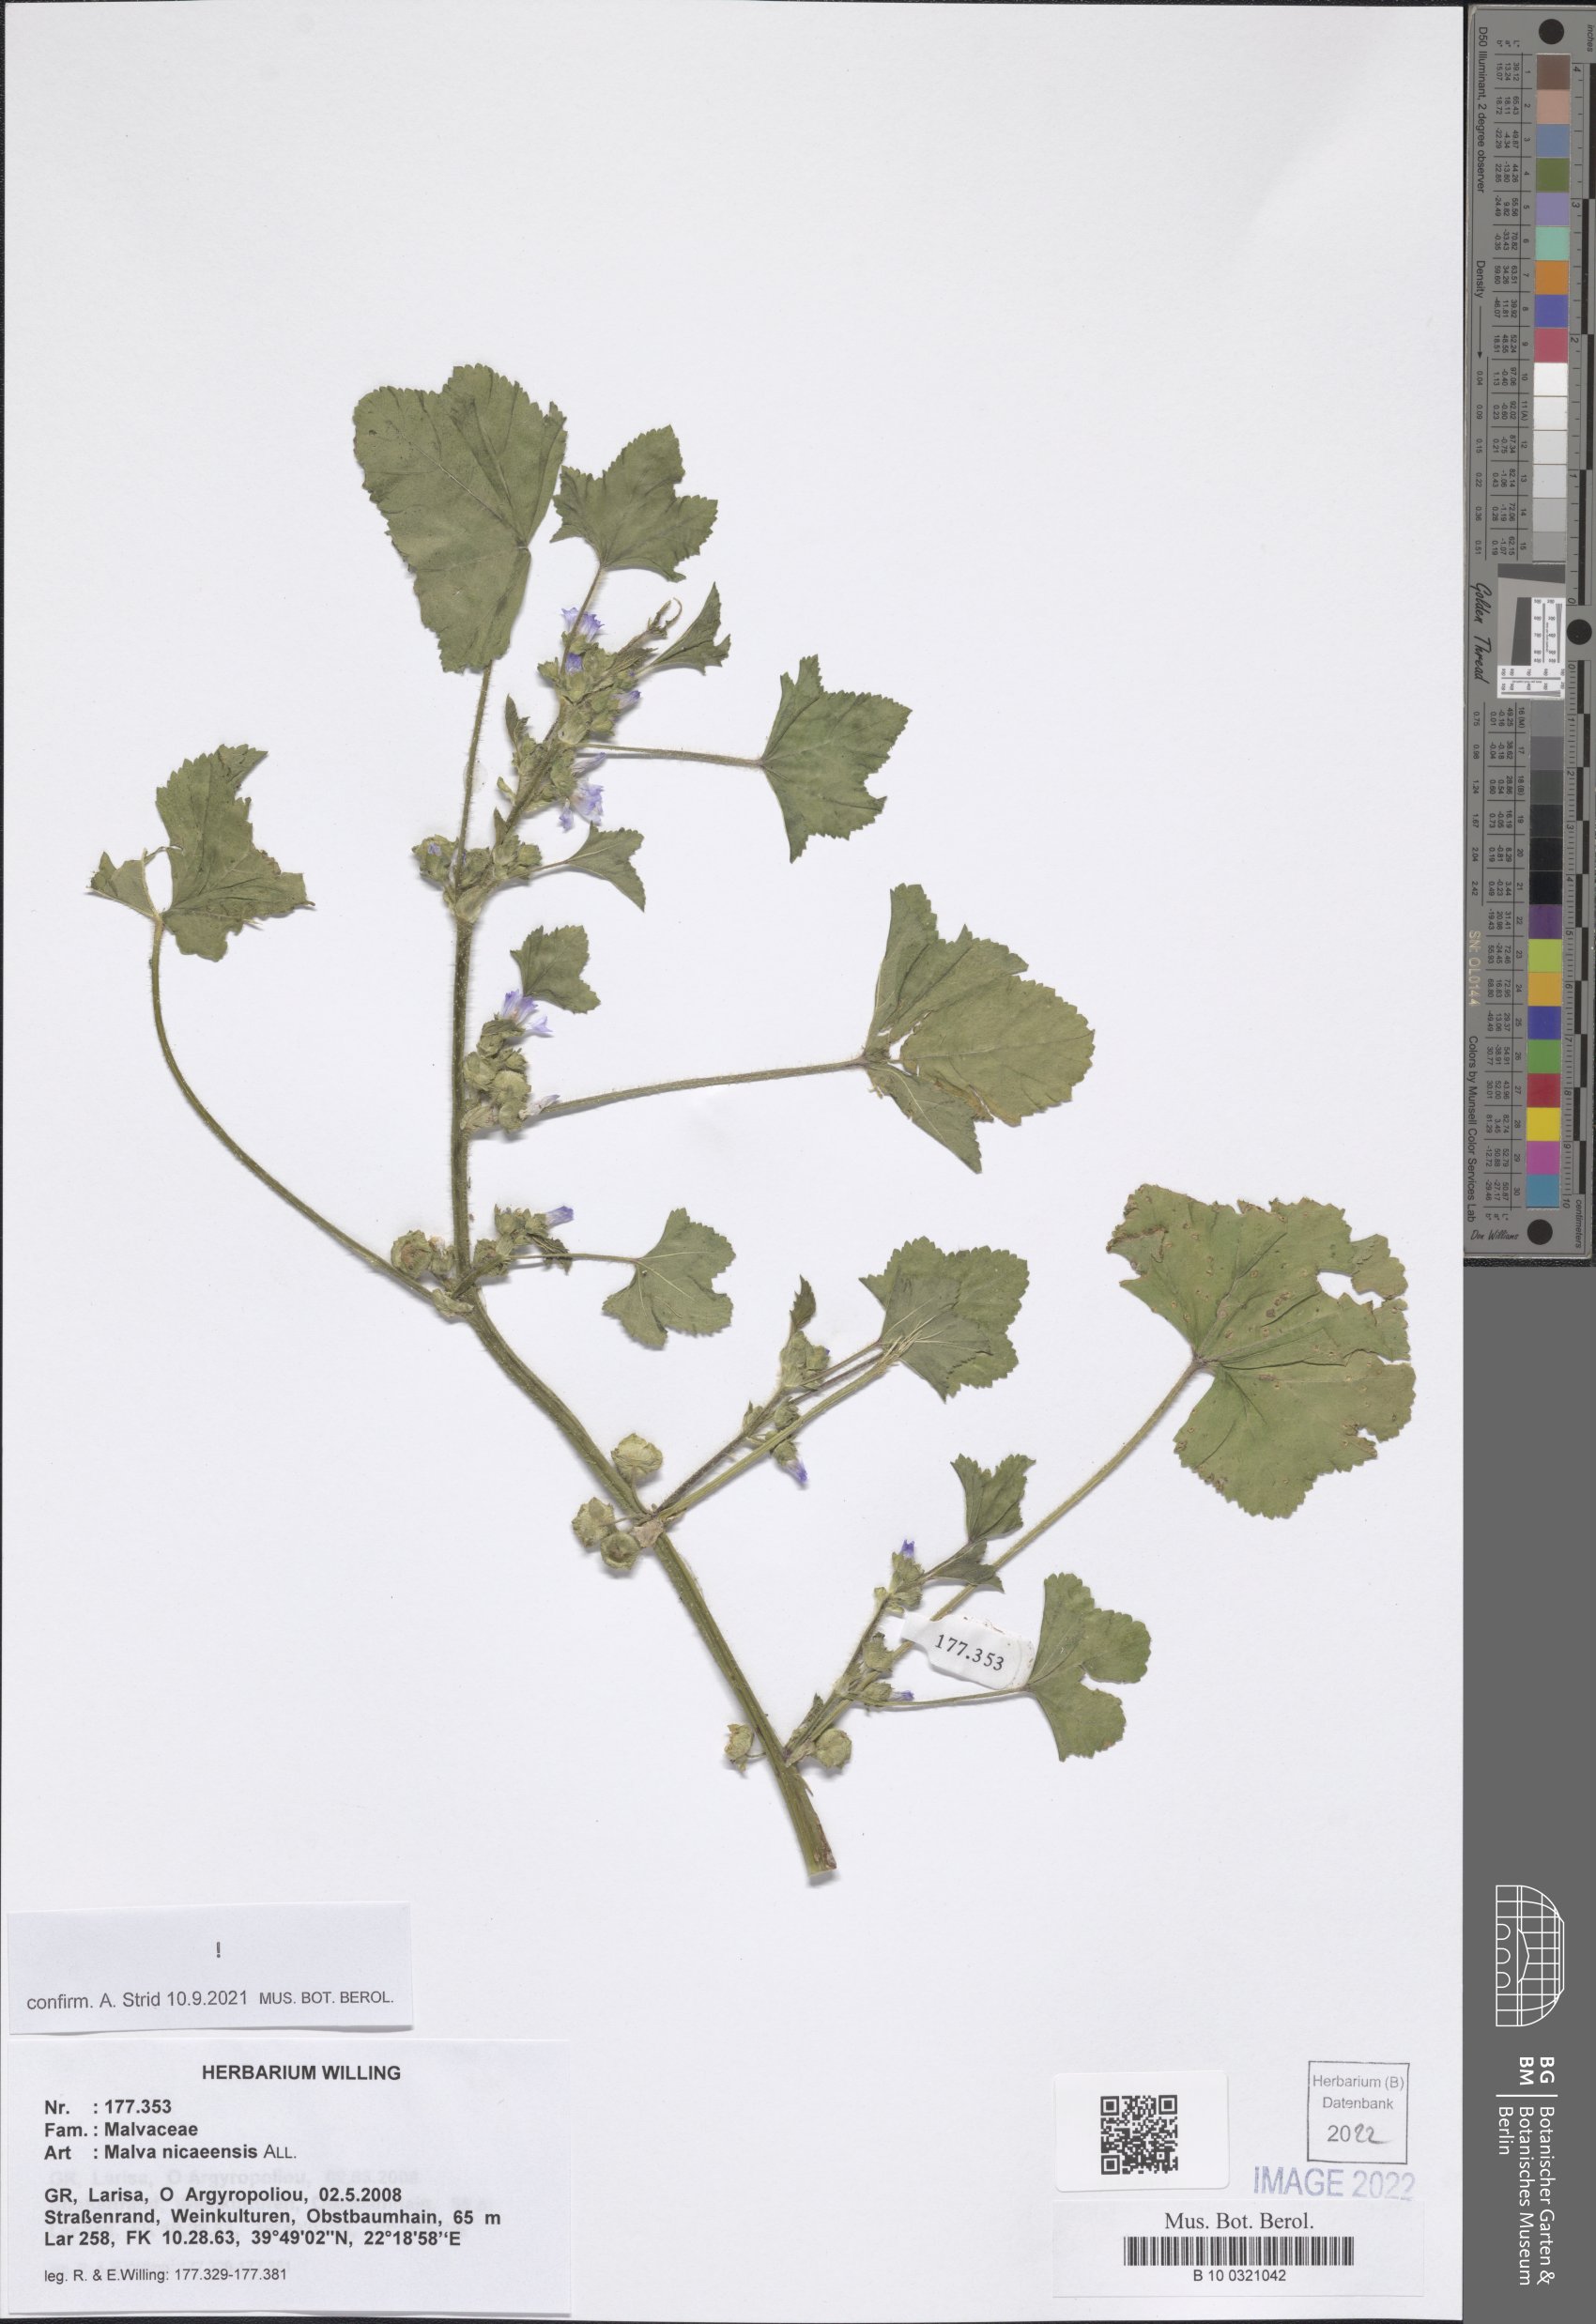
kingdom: Plantae
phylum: Tracheophyta
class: Magnoliopsida
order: Malvales
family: Malvaceae
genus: Malva
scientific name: Malva nicaeensis
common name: French mallow
